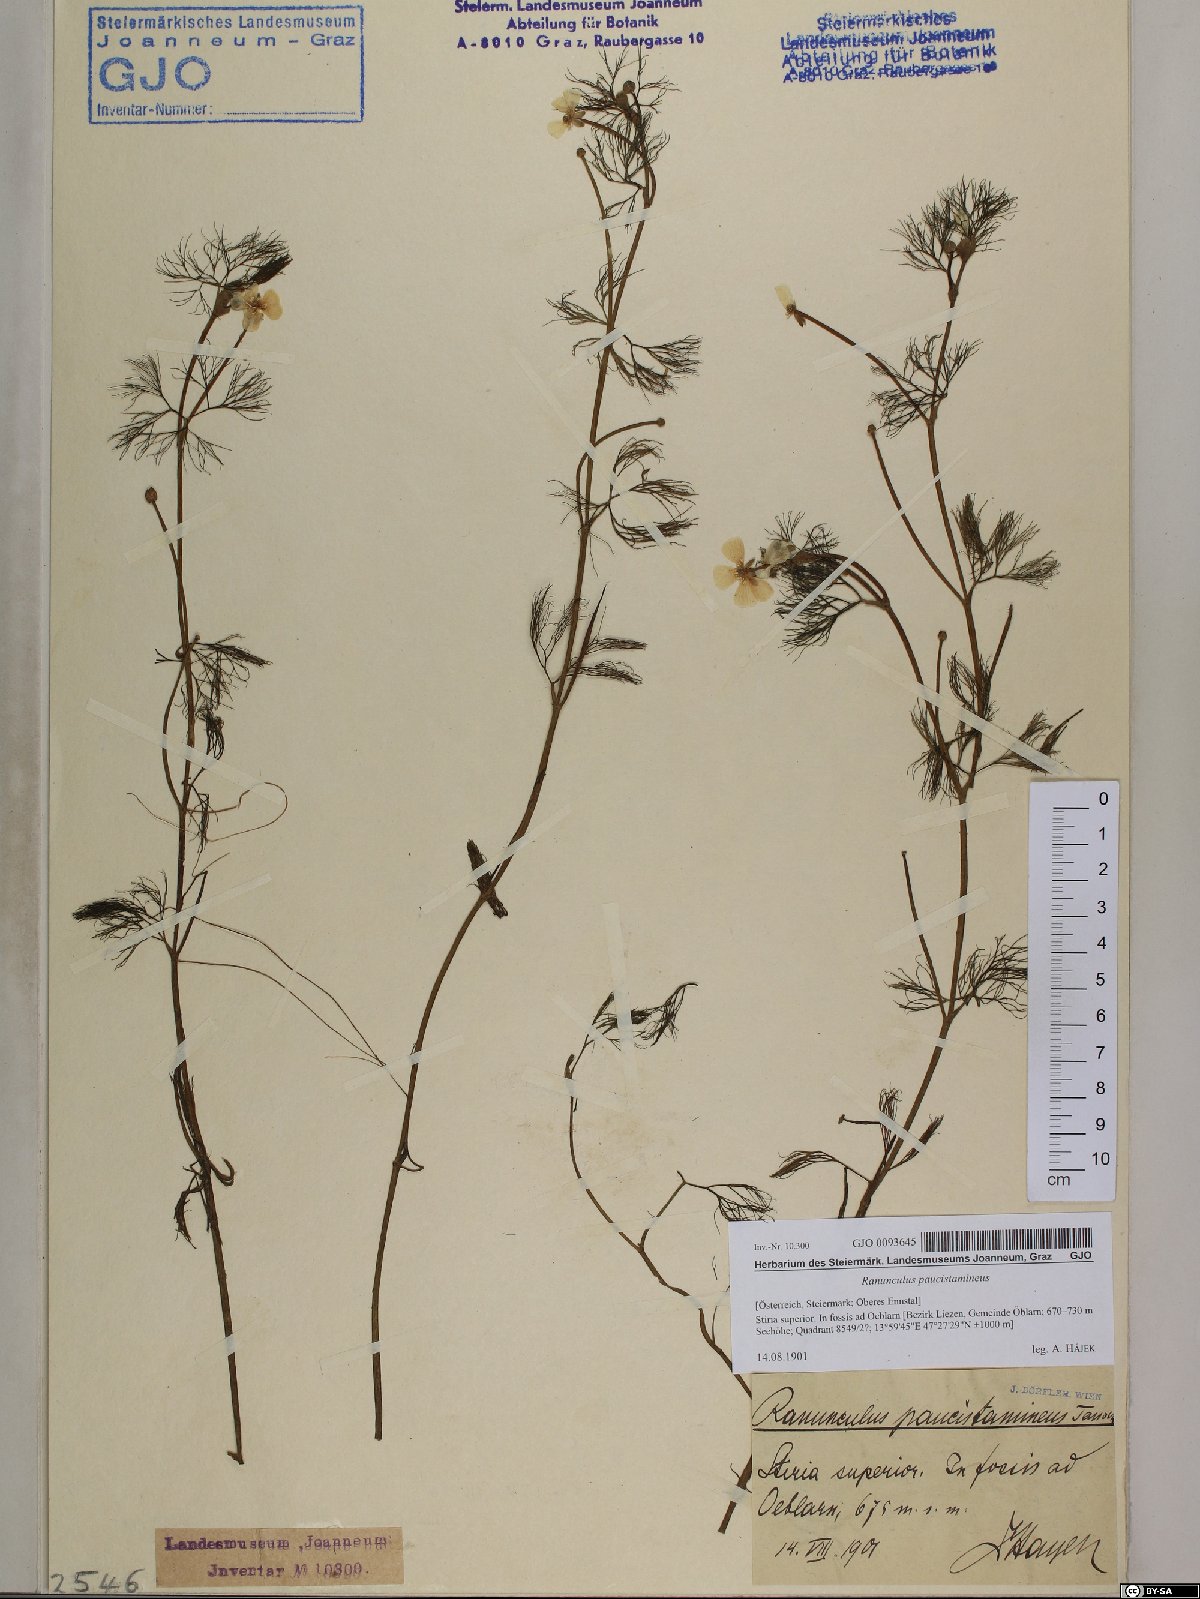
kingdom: Plantae
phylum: Tracheophyta
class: Magnoliopsida
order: Ranunculales
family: Ranunculaceae
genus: Ranunculus
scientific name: Ranunculus
